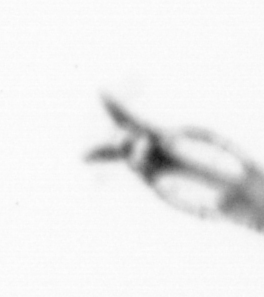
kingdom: Animalia
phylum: Arthropoda
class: Copepoda
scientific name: Copepoda
